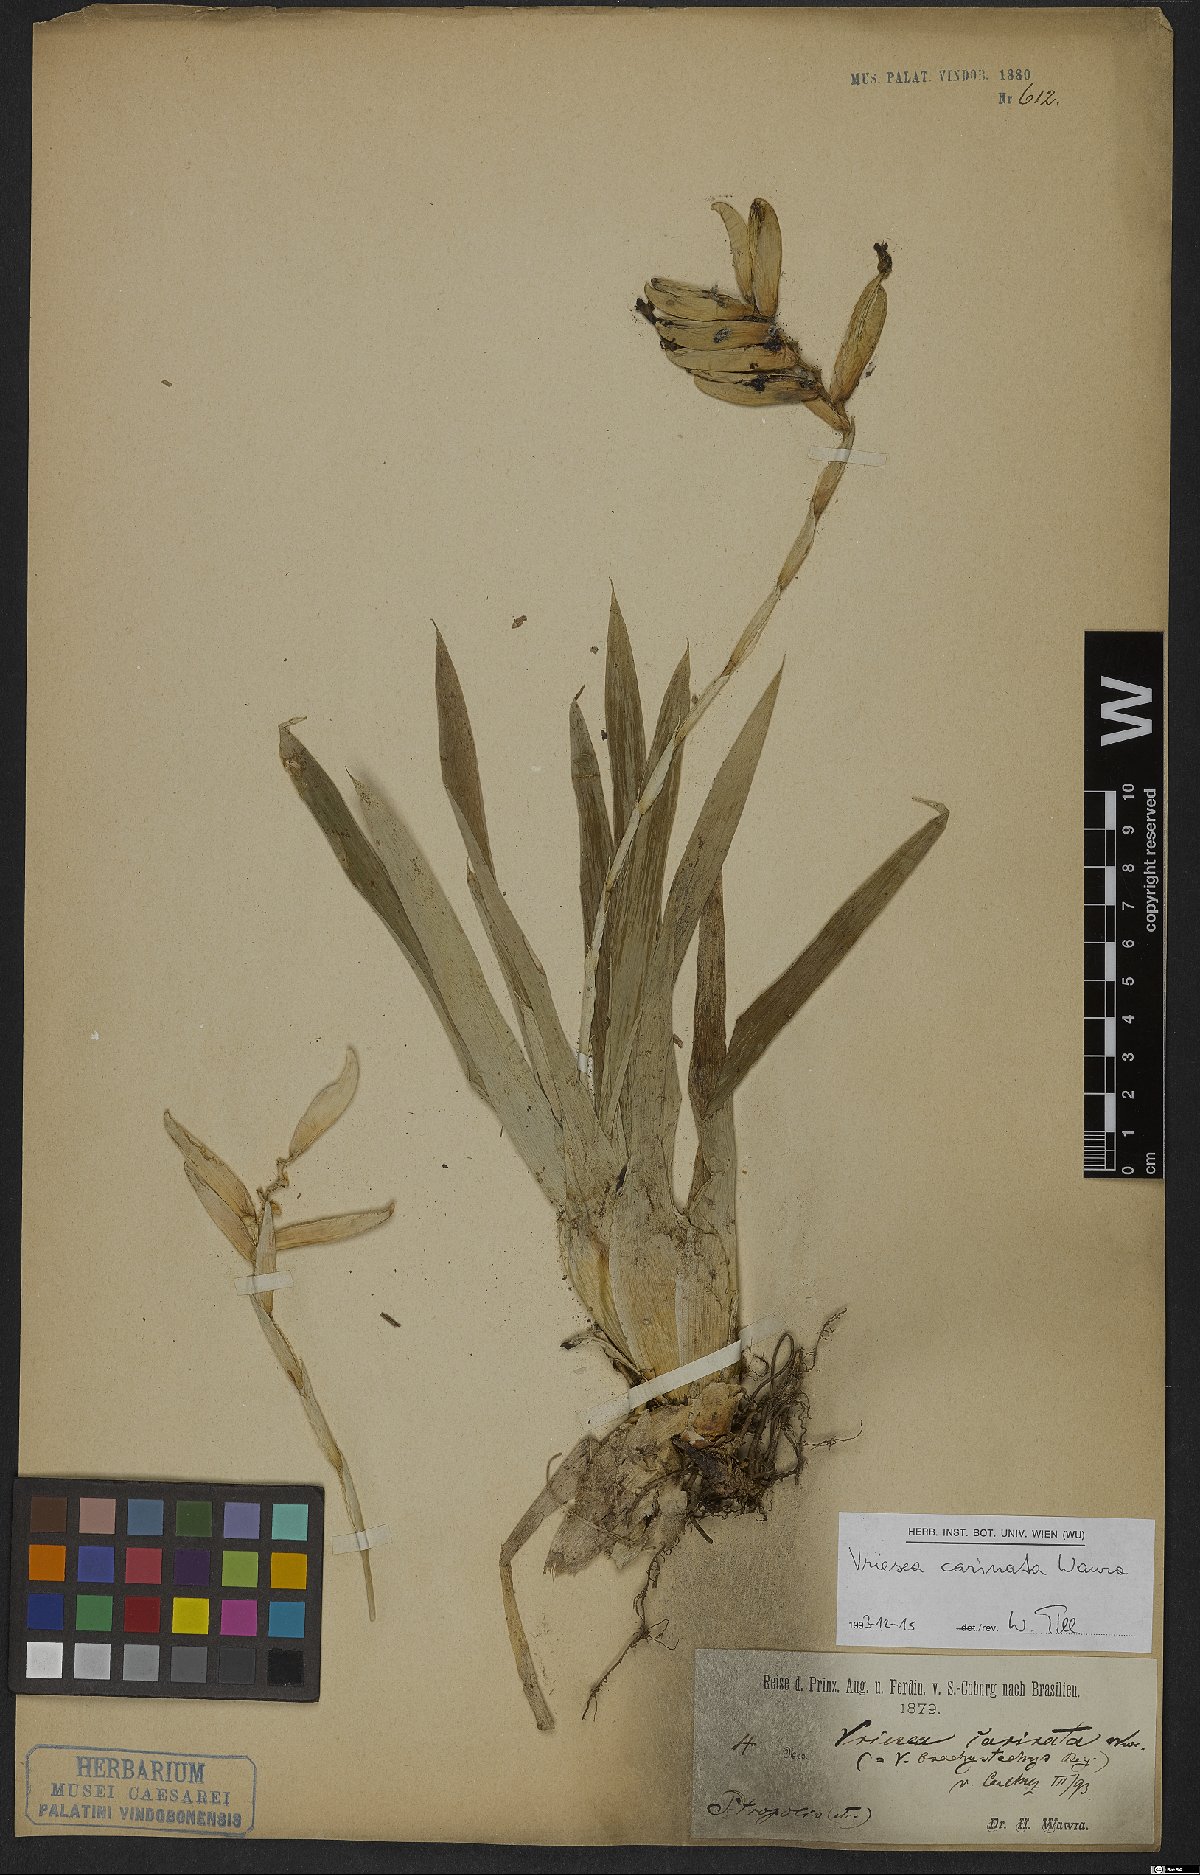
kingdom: Plantae
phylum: Tracheophyta
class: Liliopsida
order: Poales
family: Bromeliaceae
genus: Vriesea
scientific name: Vriesea carinata
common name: Lobster-claws
